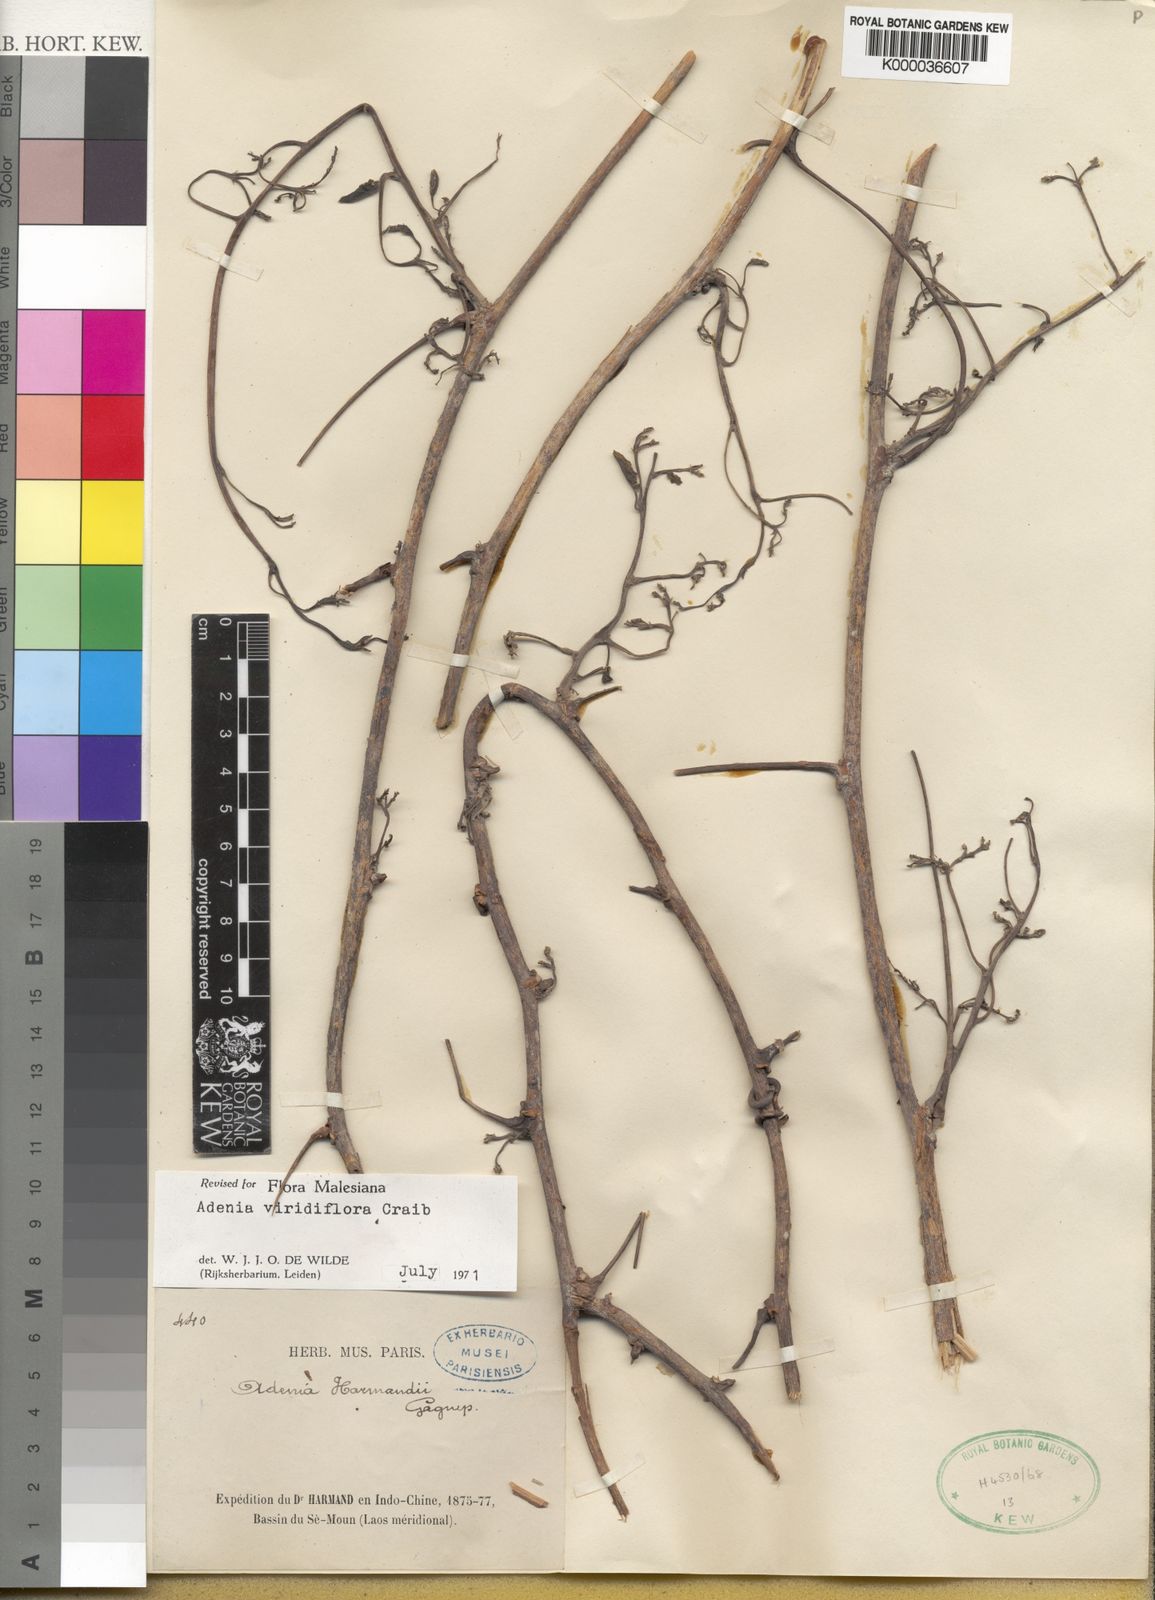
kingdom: Plantae
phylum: Tracheophyta
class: Magnoliopsida
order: Malpighiales
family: Passifloraceae
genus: Adenia
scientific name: Adenia viridiflora
